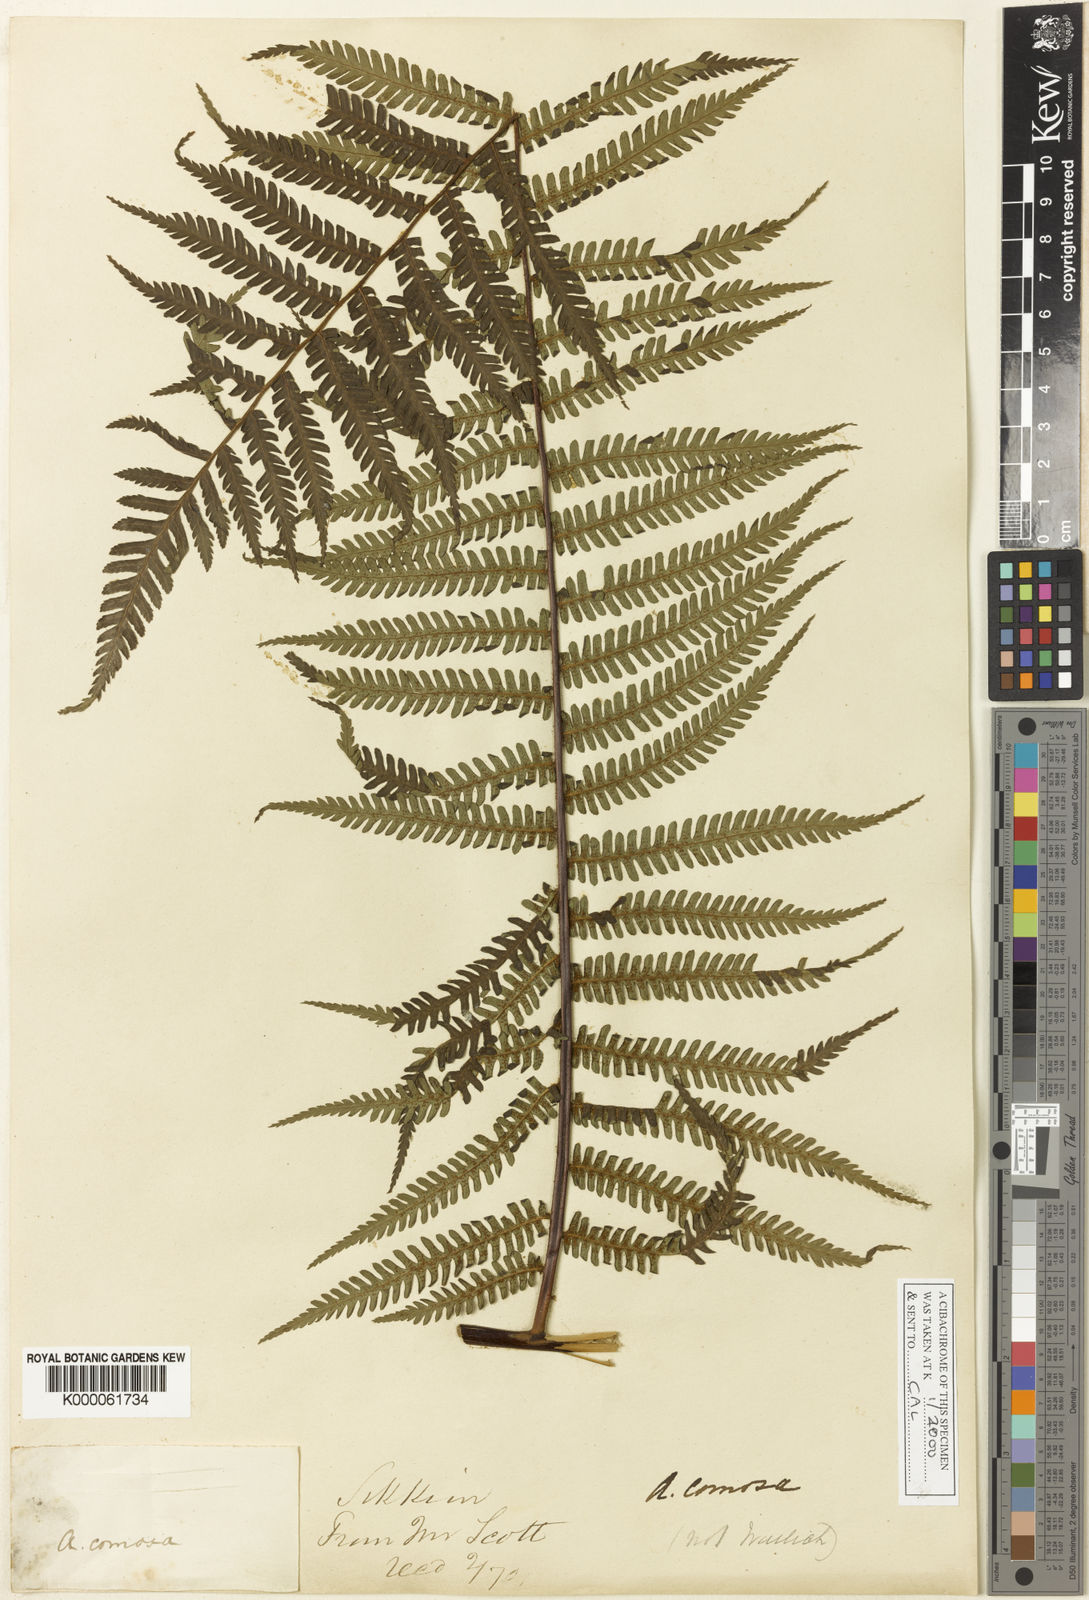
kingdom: Plantae
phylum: Tracheophyta
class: Polypodiopsida
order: Cyatheales
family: Cyatheaceae
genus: Gymnosphaera
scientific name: Gymnosphaera khasyana
